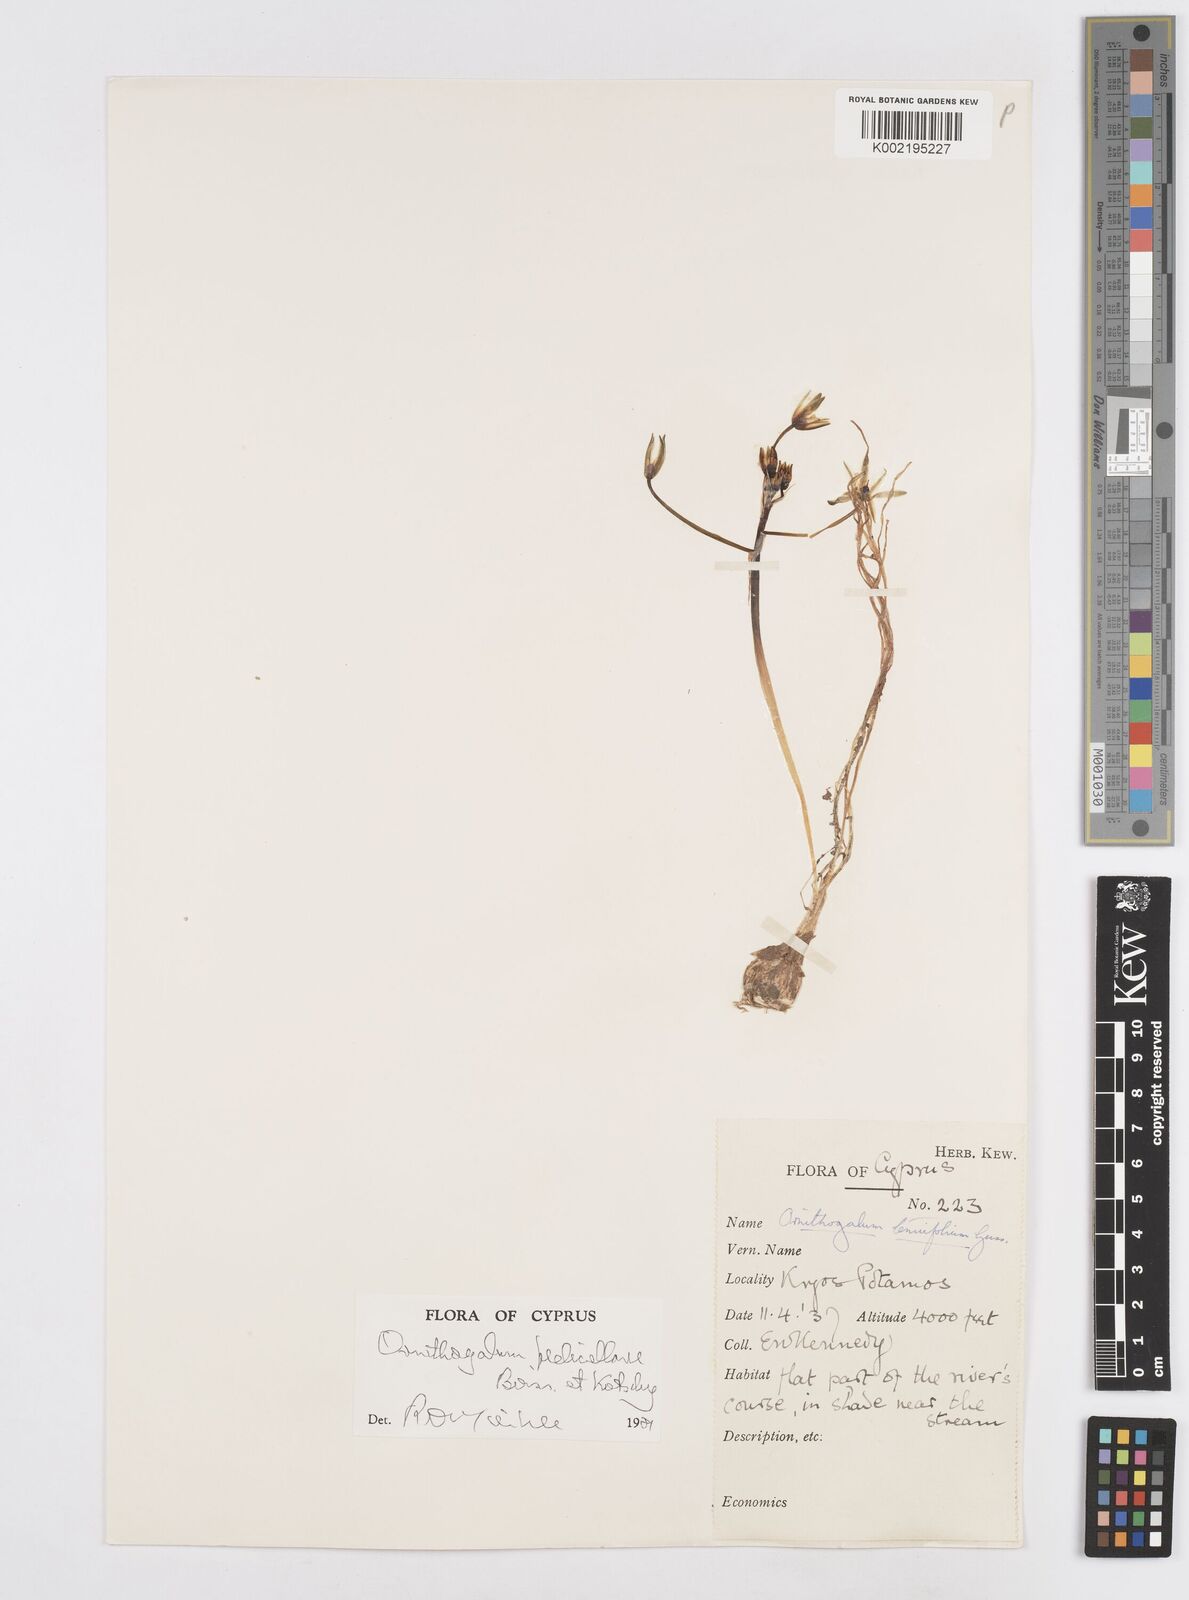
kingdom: Plantae
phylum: Tracheophyta
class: Liliopsida
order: Asparagales
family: Asparagaceae
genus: Ornithogalum
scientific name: Ornithogalum pedicellare
